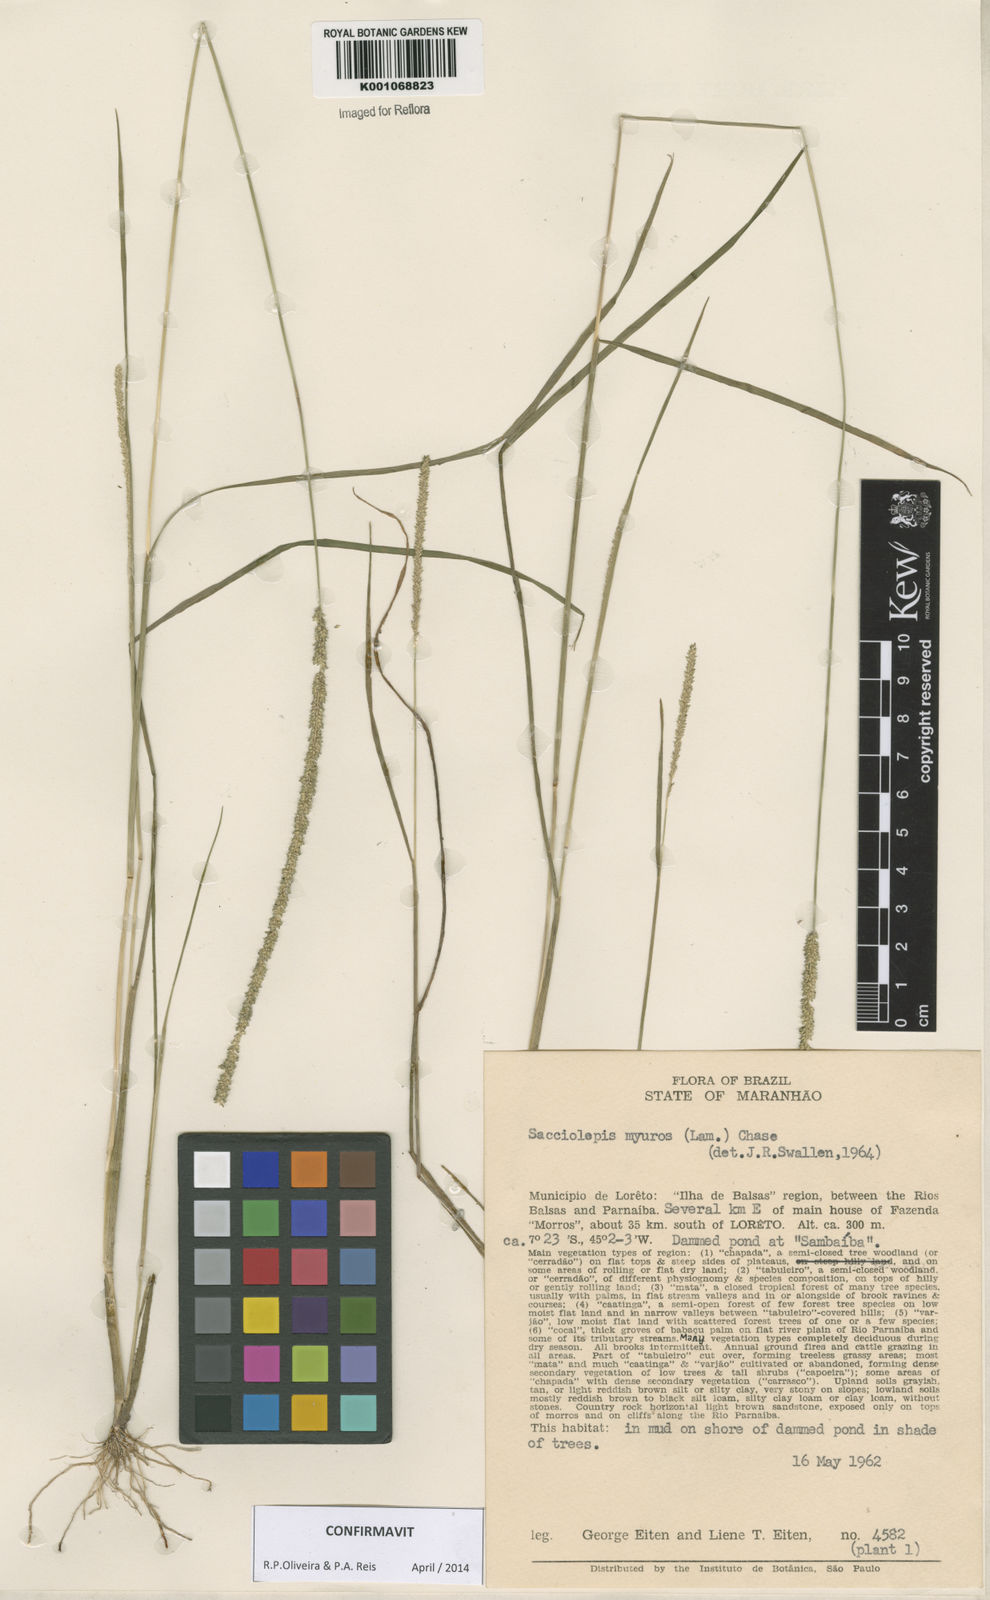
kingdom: Plantae
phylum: Tracheophyta
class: Liliopsida
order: Poales
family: Poaceae
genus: Sacciolepis
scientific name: Sacciolepis myuros
